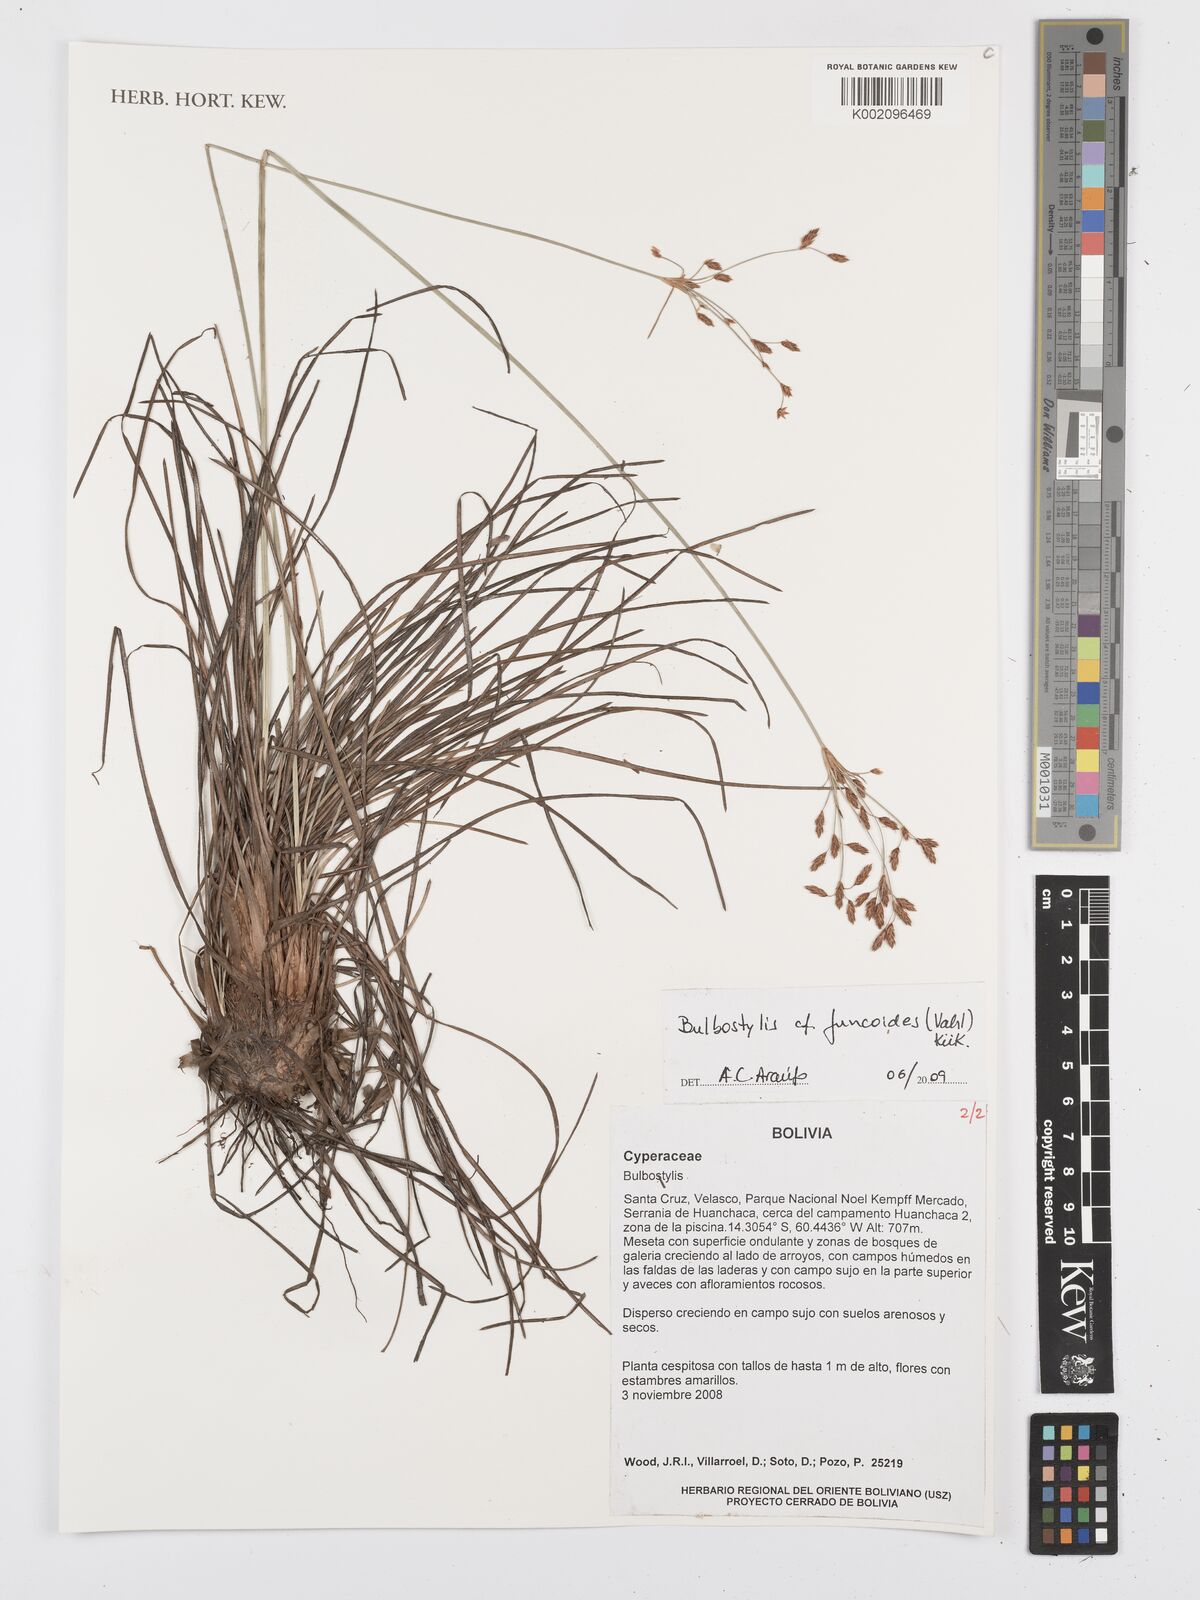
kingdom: Plantae
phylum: Tracheophyta
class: Liliopsida
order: Poales
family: Cyperaceae
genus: Bulbostylis
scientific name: Bulbostylis juncoides
